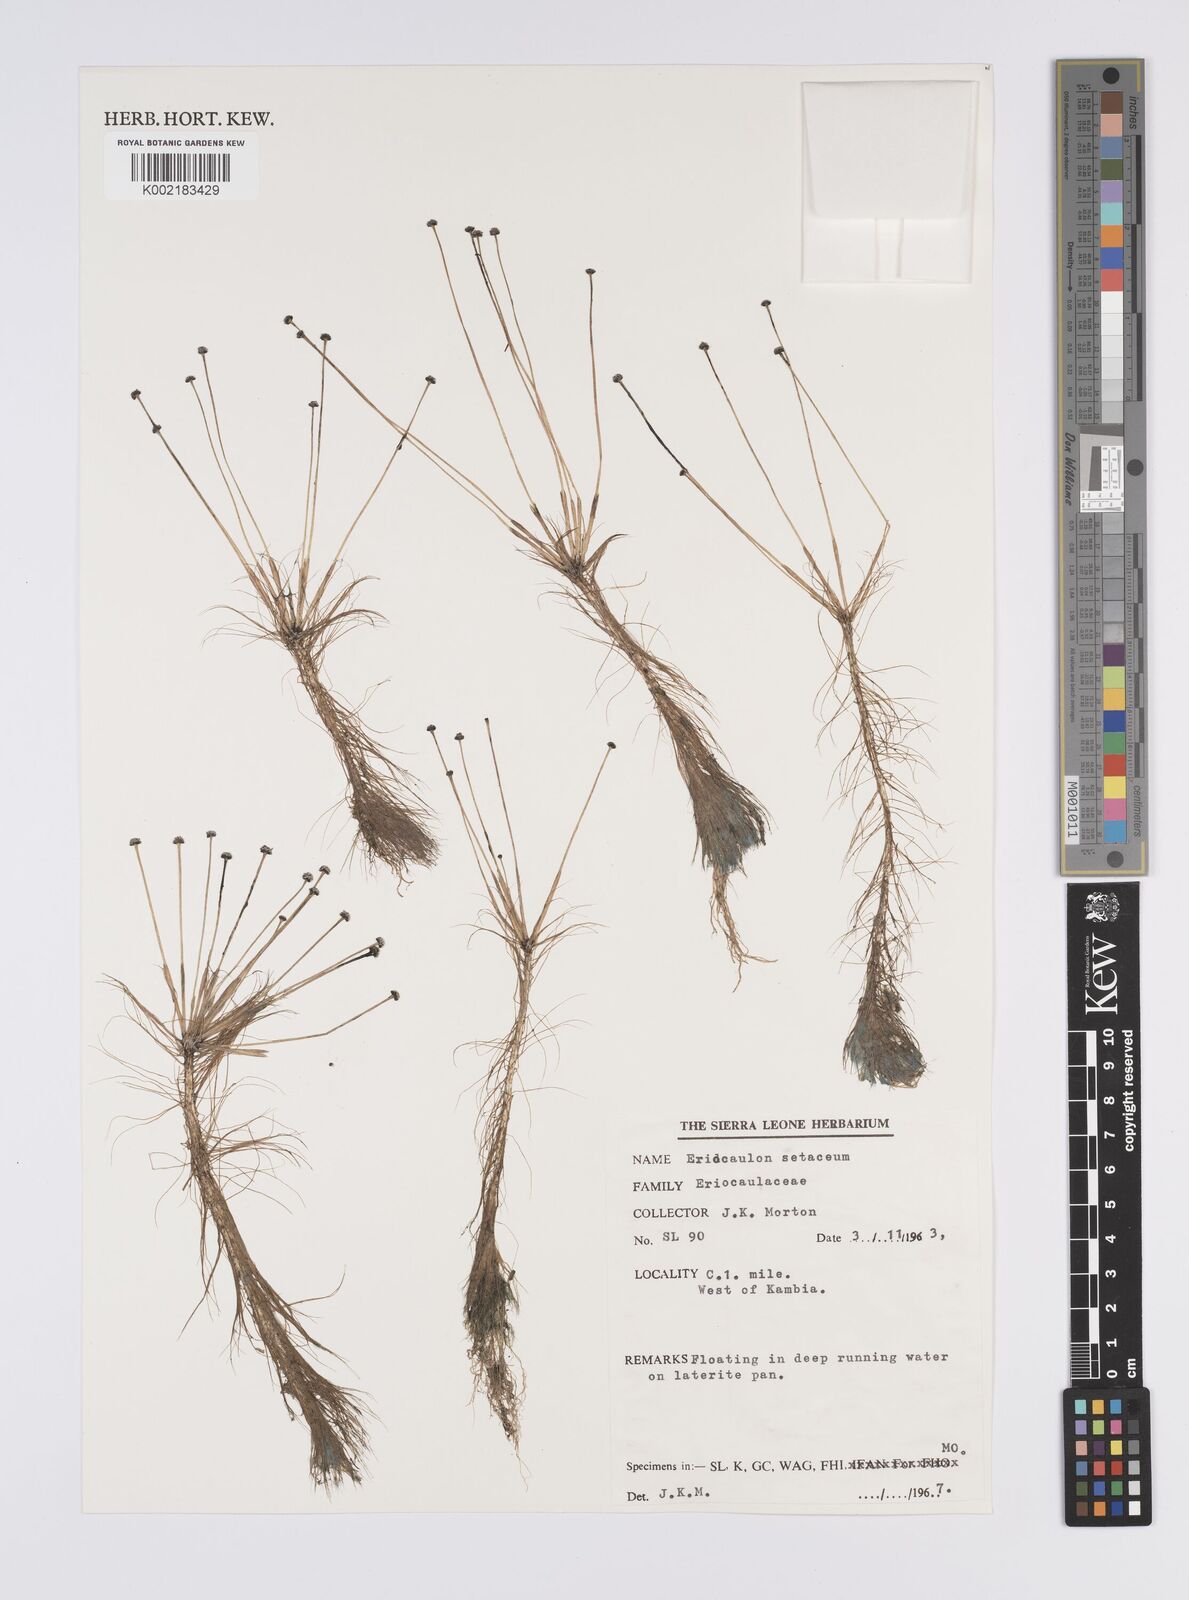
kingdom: Plantae
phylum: Tracheophyta
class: Liliopsida
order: Poales
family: Eriocaulaceae
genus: Eriocaulon
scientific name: Eriocaulon setaceum
